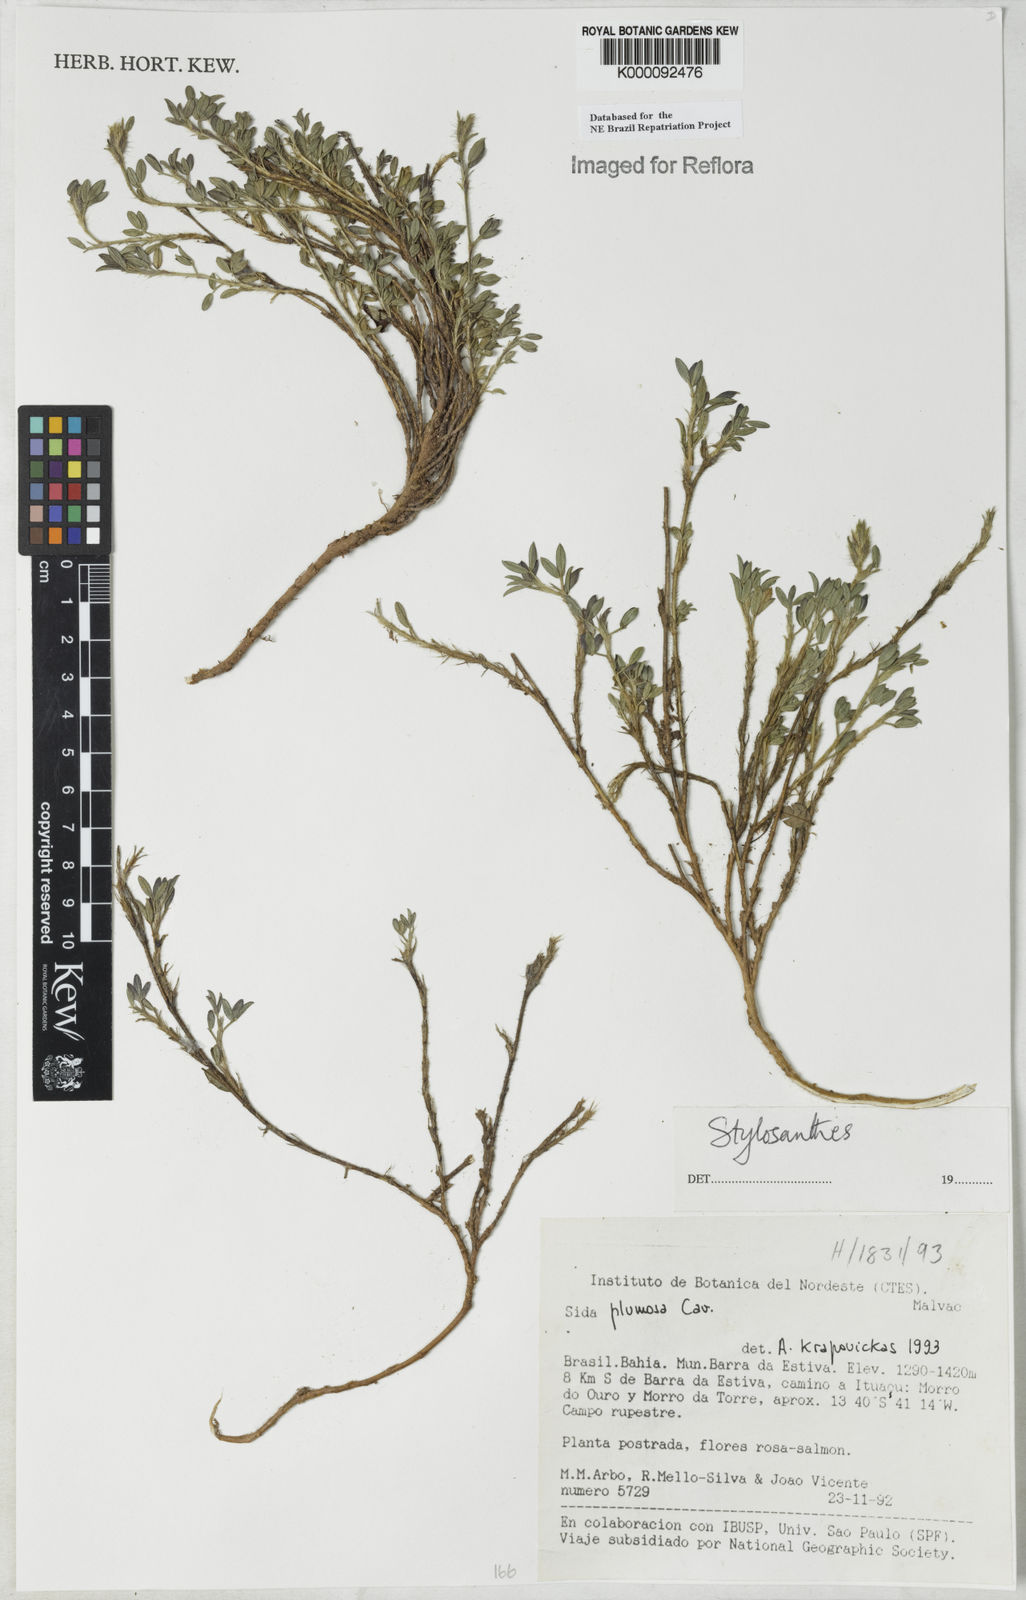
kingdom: Plantae
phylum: Tracheophyta
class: Magnoliopsida
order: Fabales
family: Fabaceae
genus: Stylosanthes
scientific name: Stylosanthes
